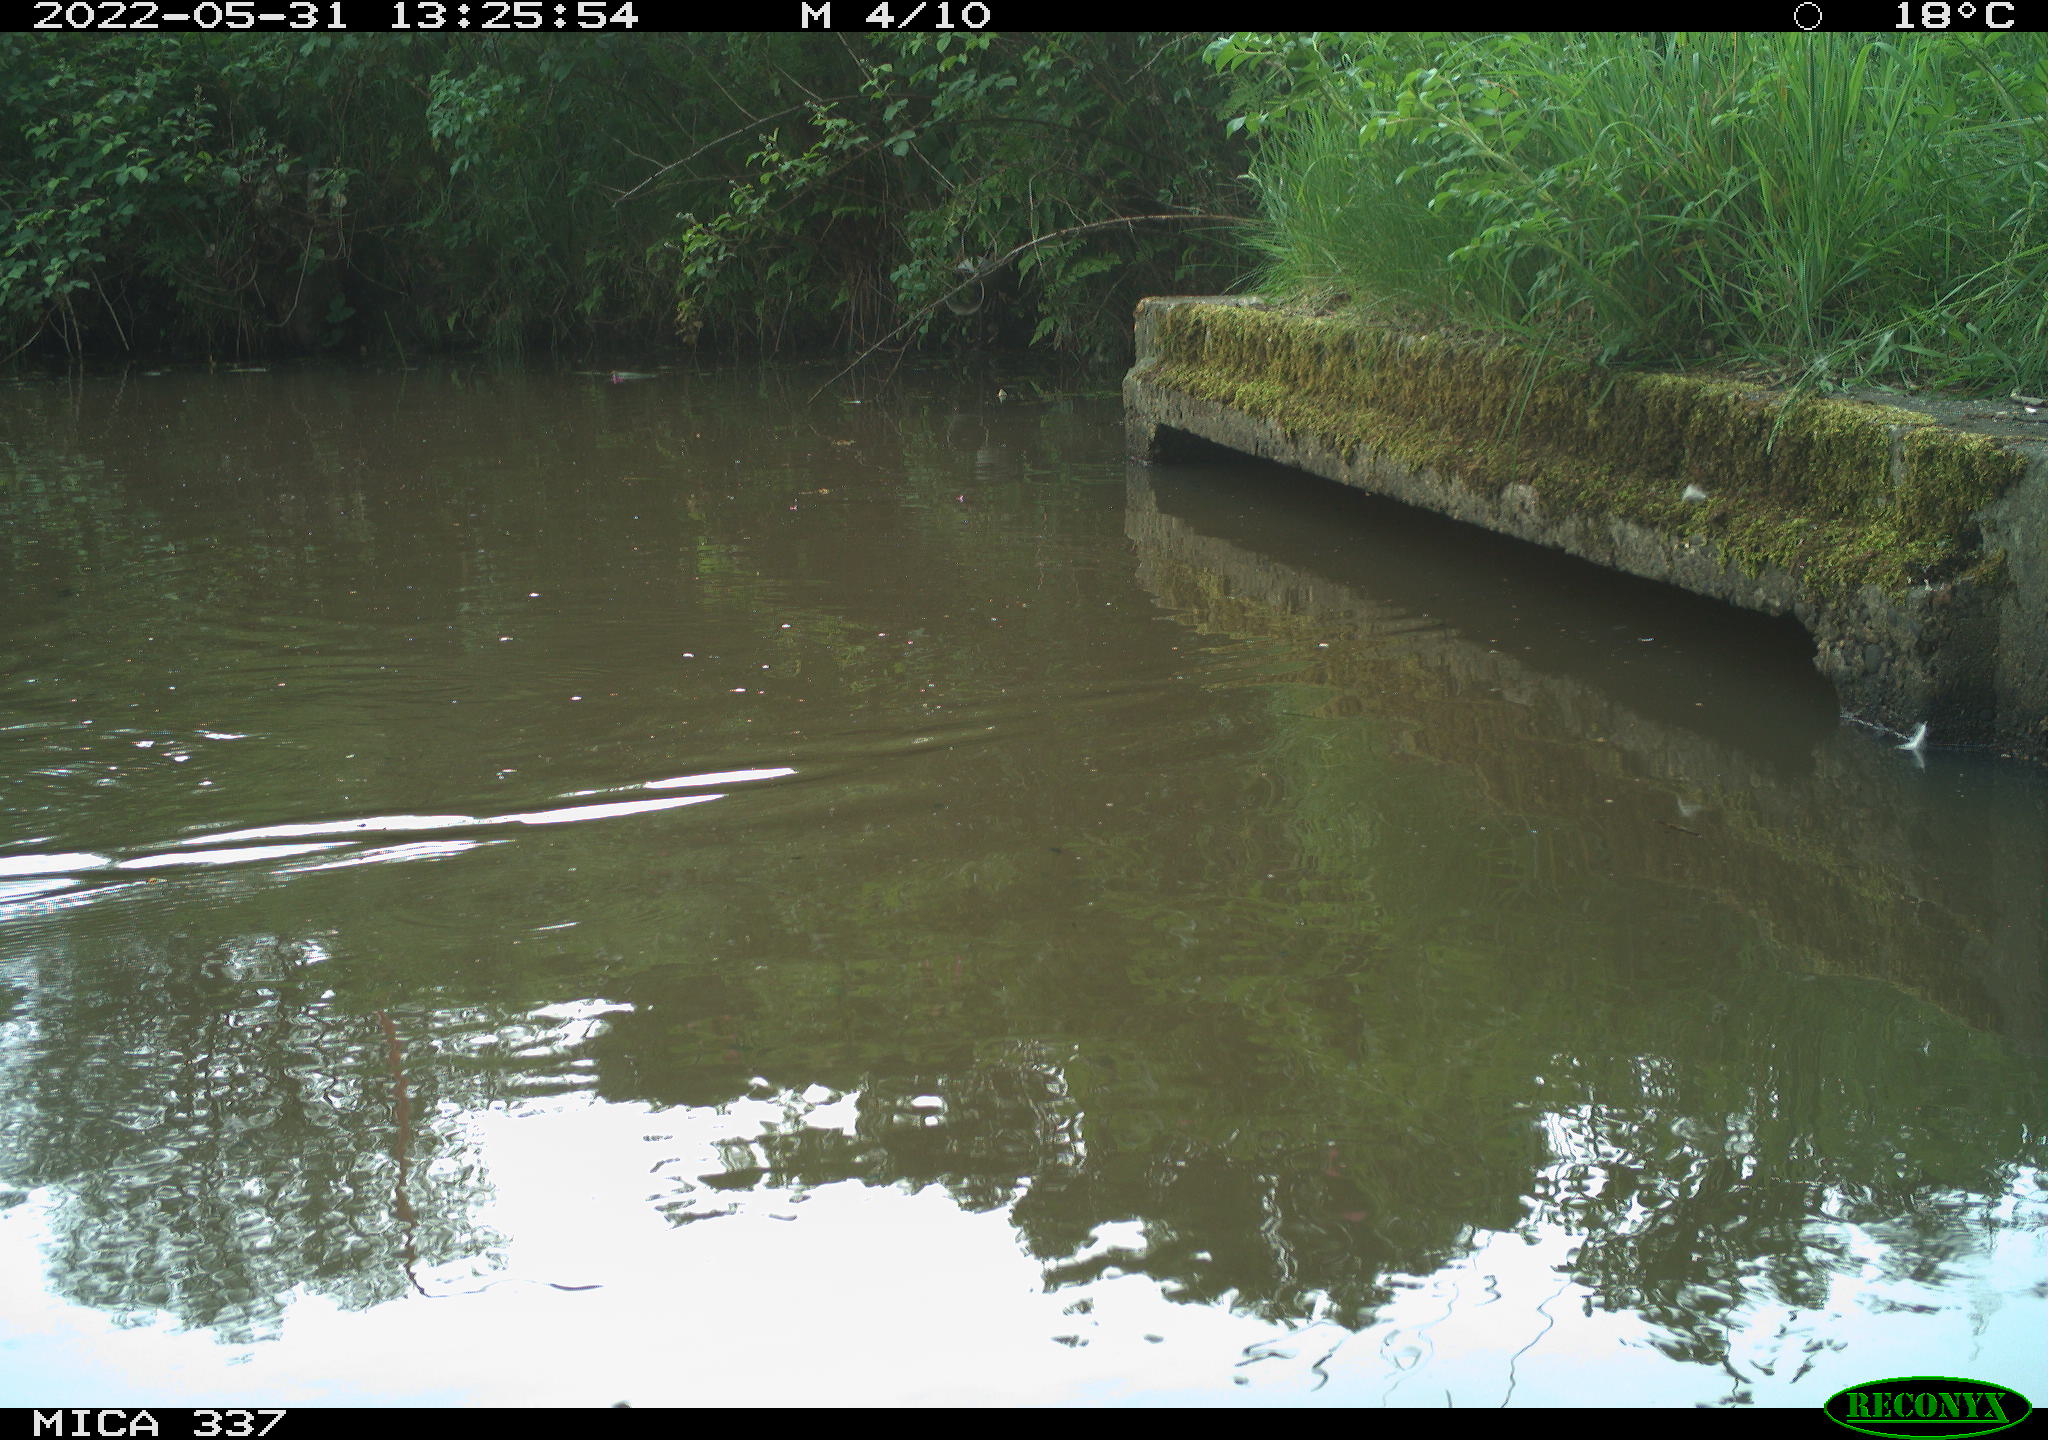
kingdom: Animalia
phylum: Chordata
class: Aves
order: Anseriformes
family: Anatidae
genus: Anas
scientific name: Anas platyrhynchos
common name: Mallard
